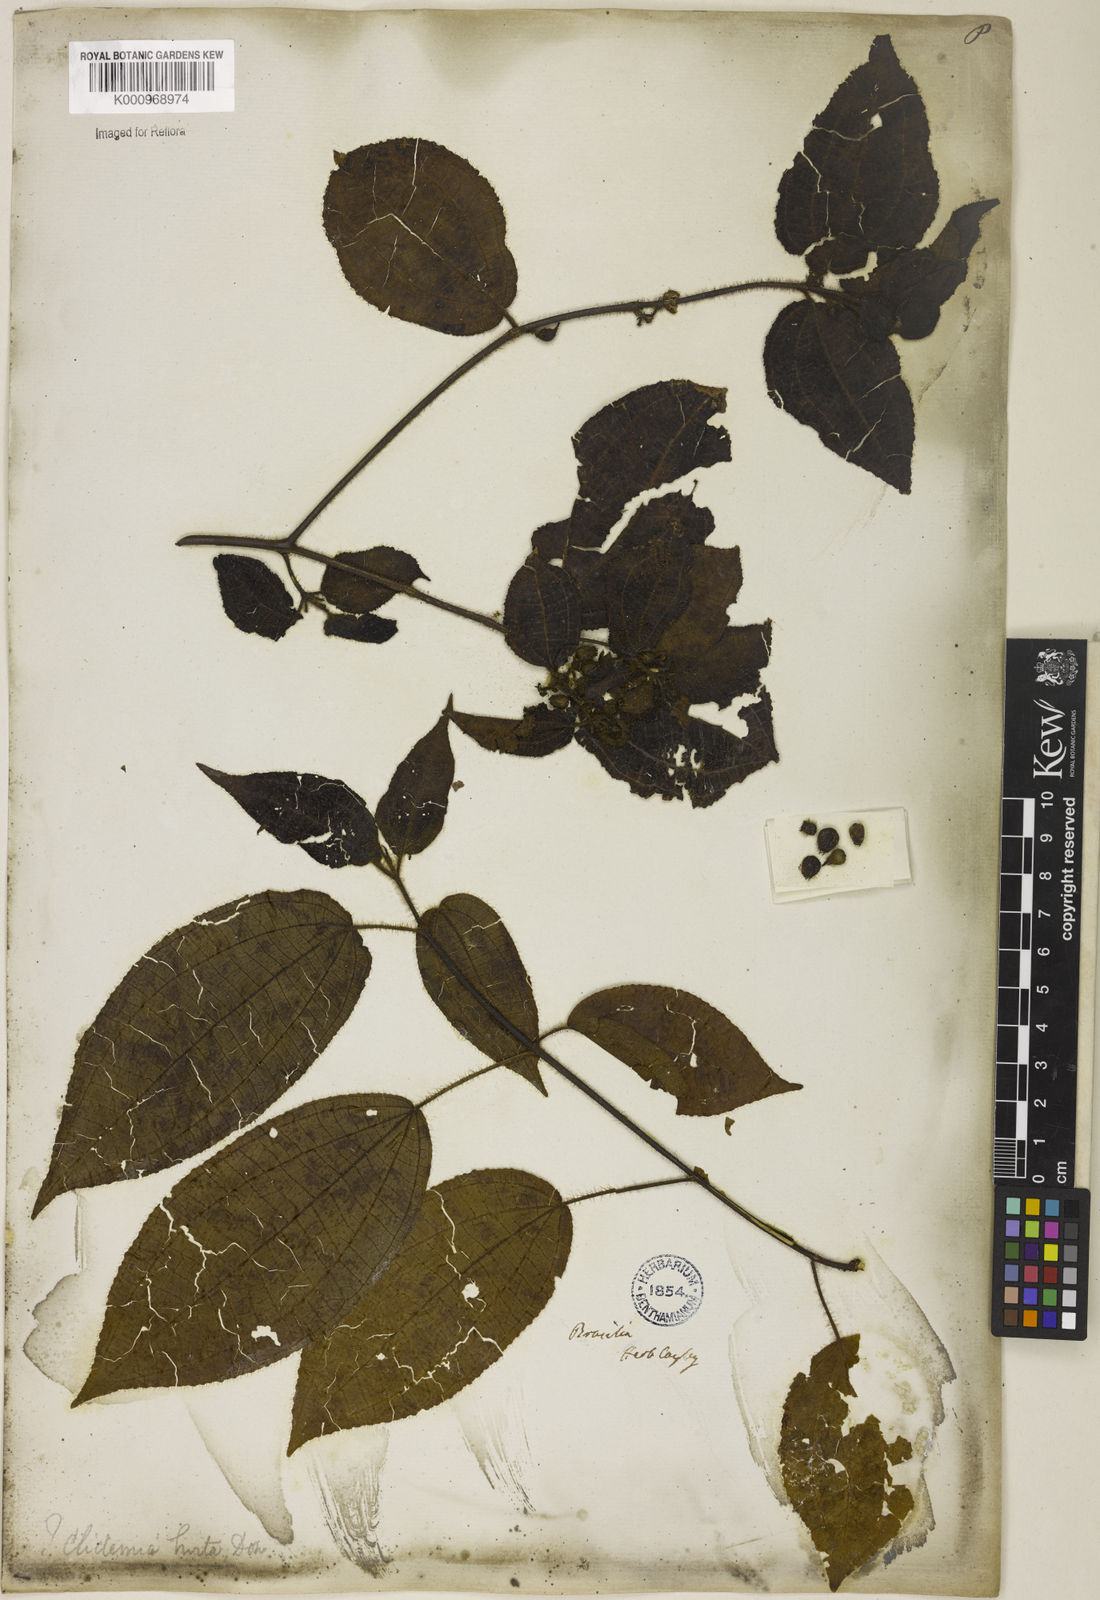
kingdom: Plantae
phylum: Tracheophyta
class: Magnoliopsida
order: Myrtales
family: Melastomataceae
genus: Miconia
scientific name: Miconia crenata
